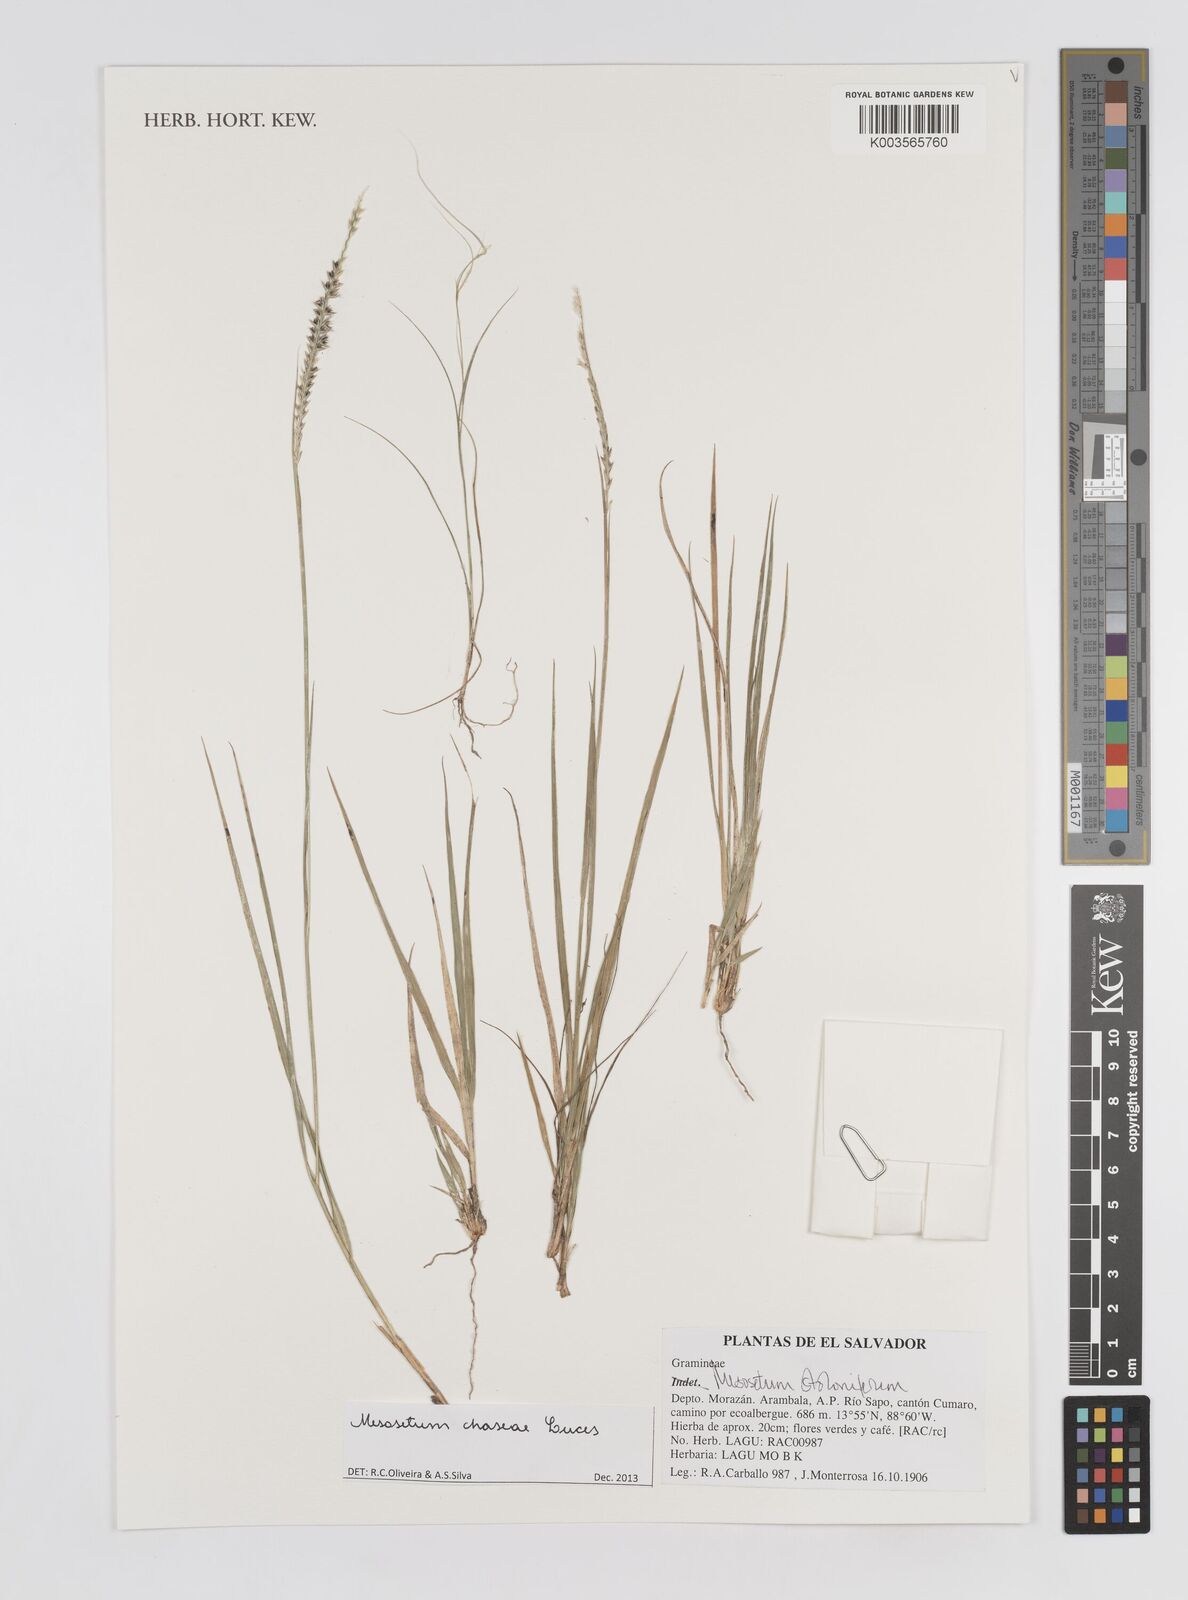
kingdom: Plantae
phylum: Tracheophyta
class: Liliopsida
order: Poales
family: Poaceae
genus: Mesosetum
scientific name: Mesosetum stoloniferum
